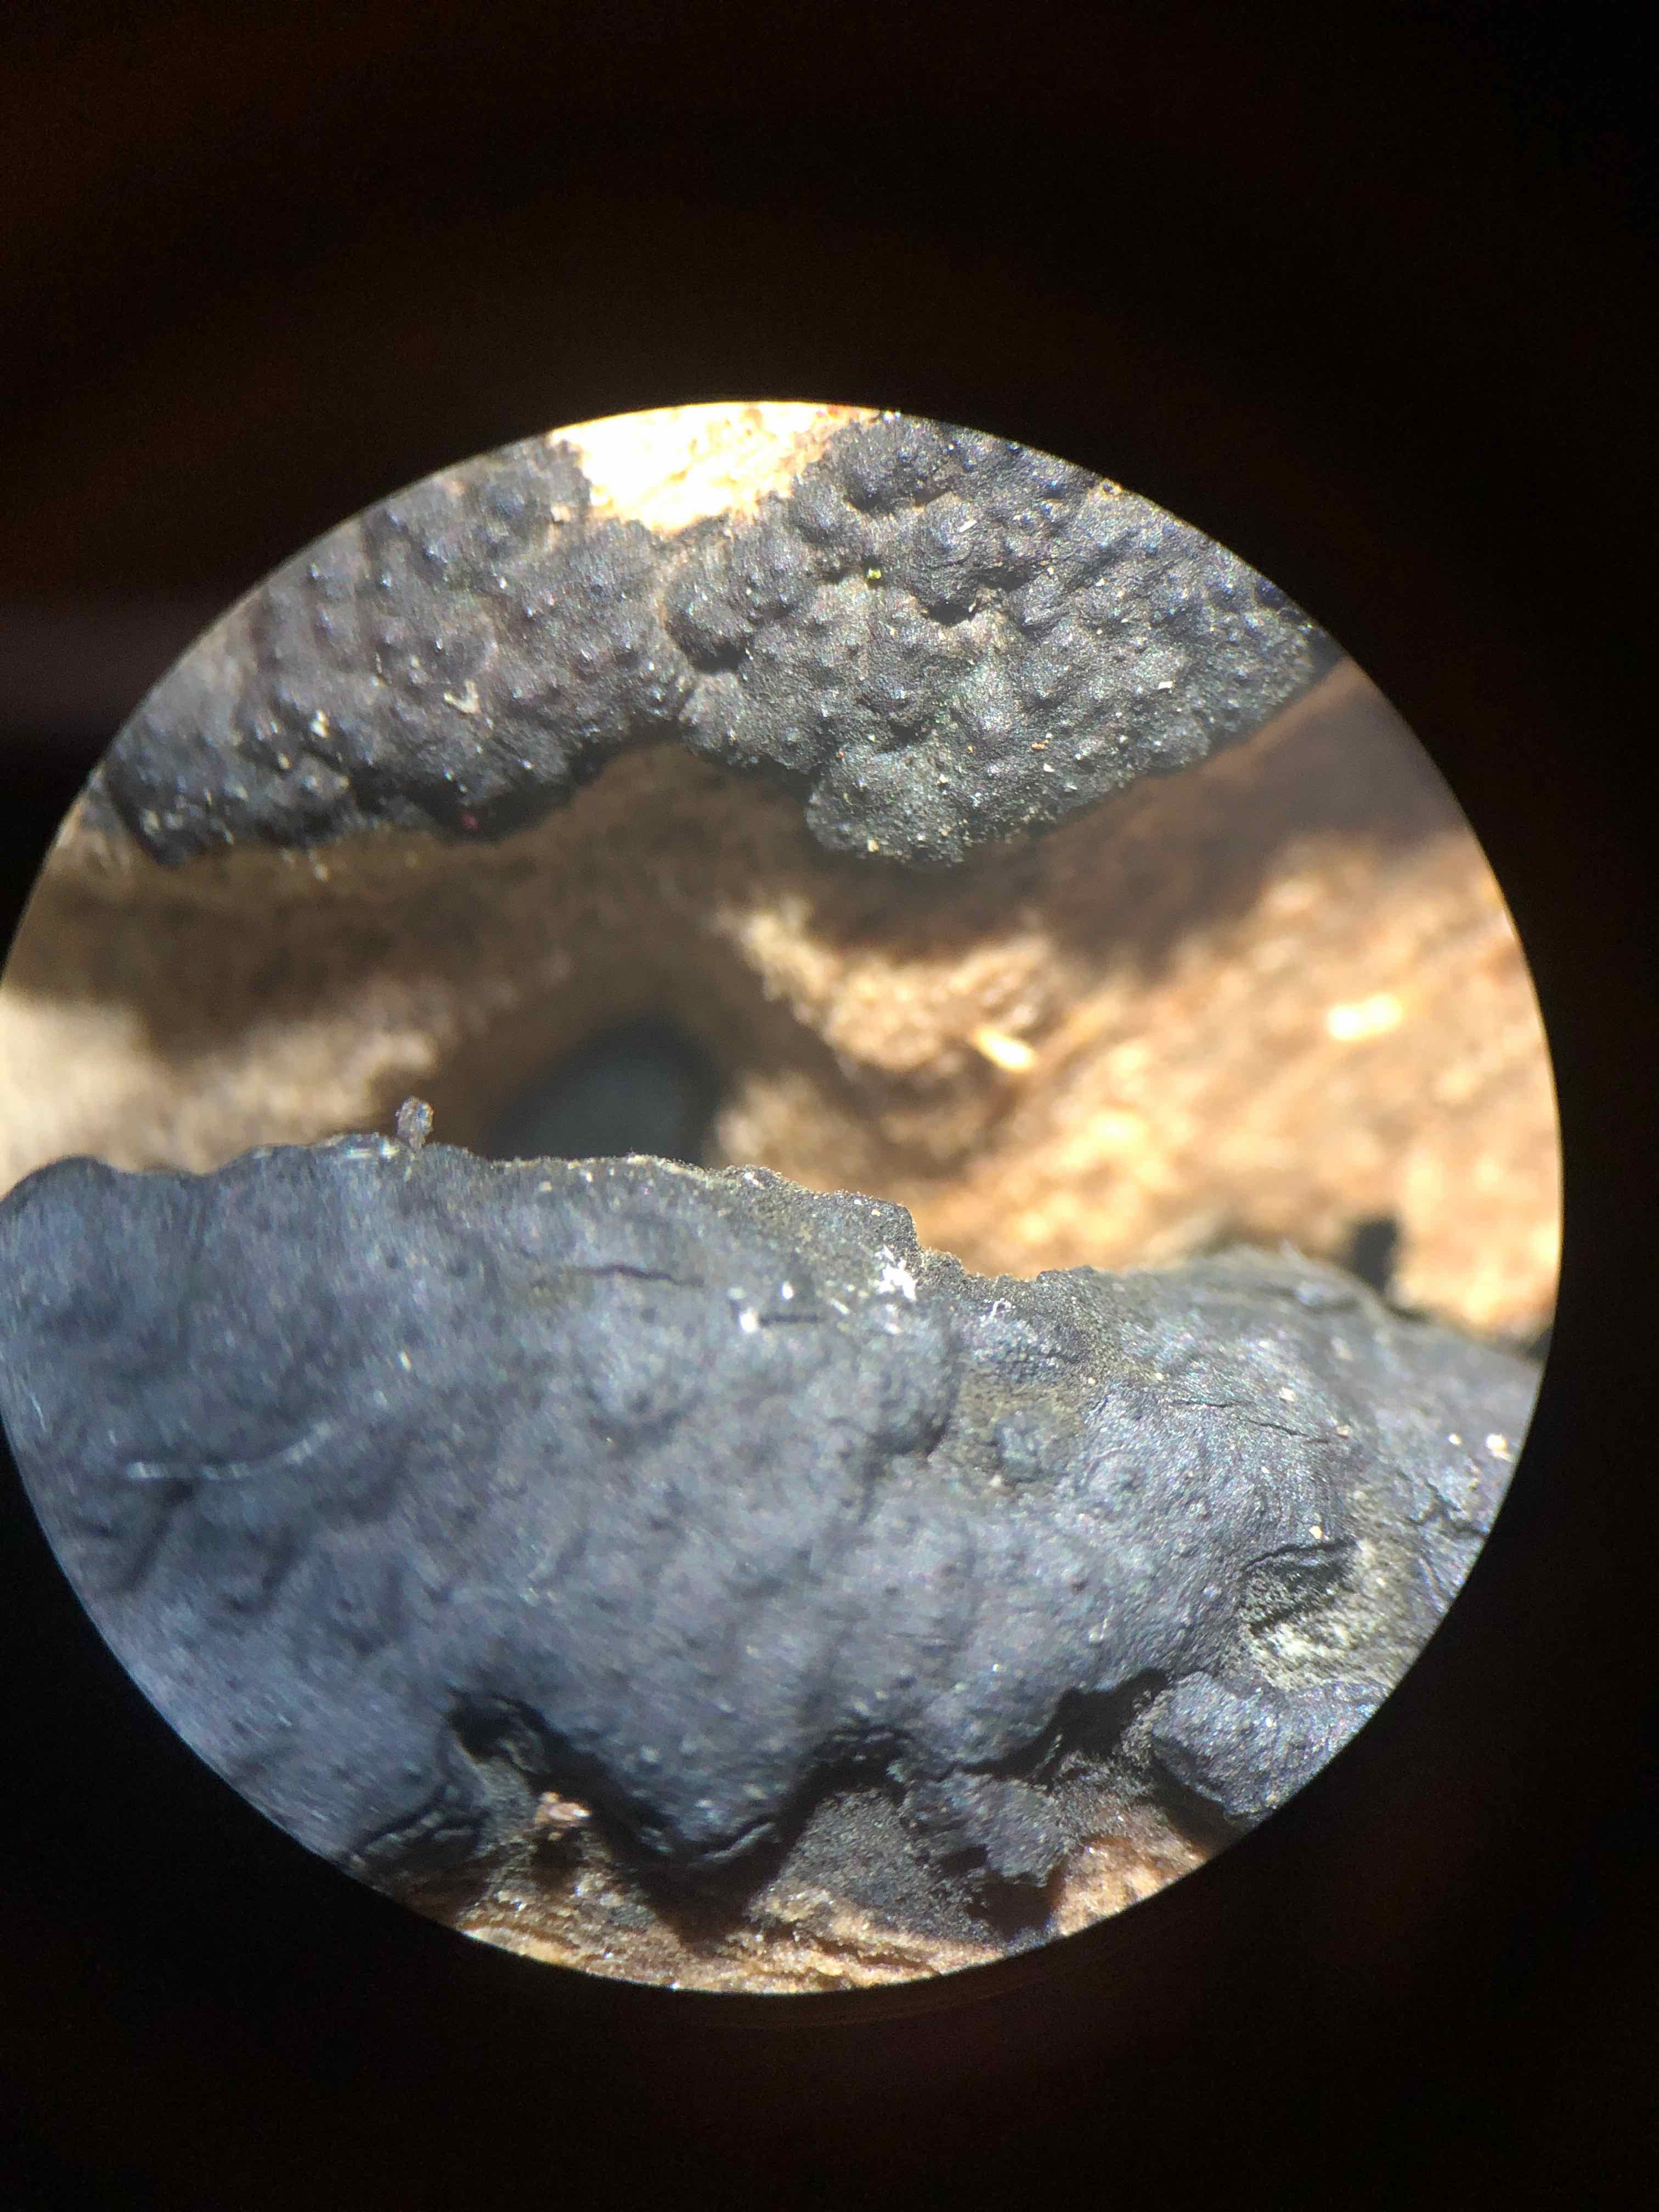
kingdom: Fungi
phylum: Ascomycota
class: Sordariomycetes
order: Xylariales
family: Xylariaceae
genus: Nemania
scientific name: Nemania serpens
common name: almindelig kuldyne
